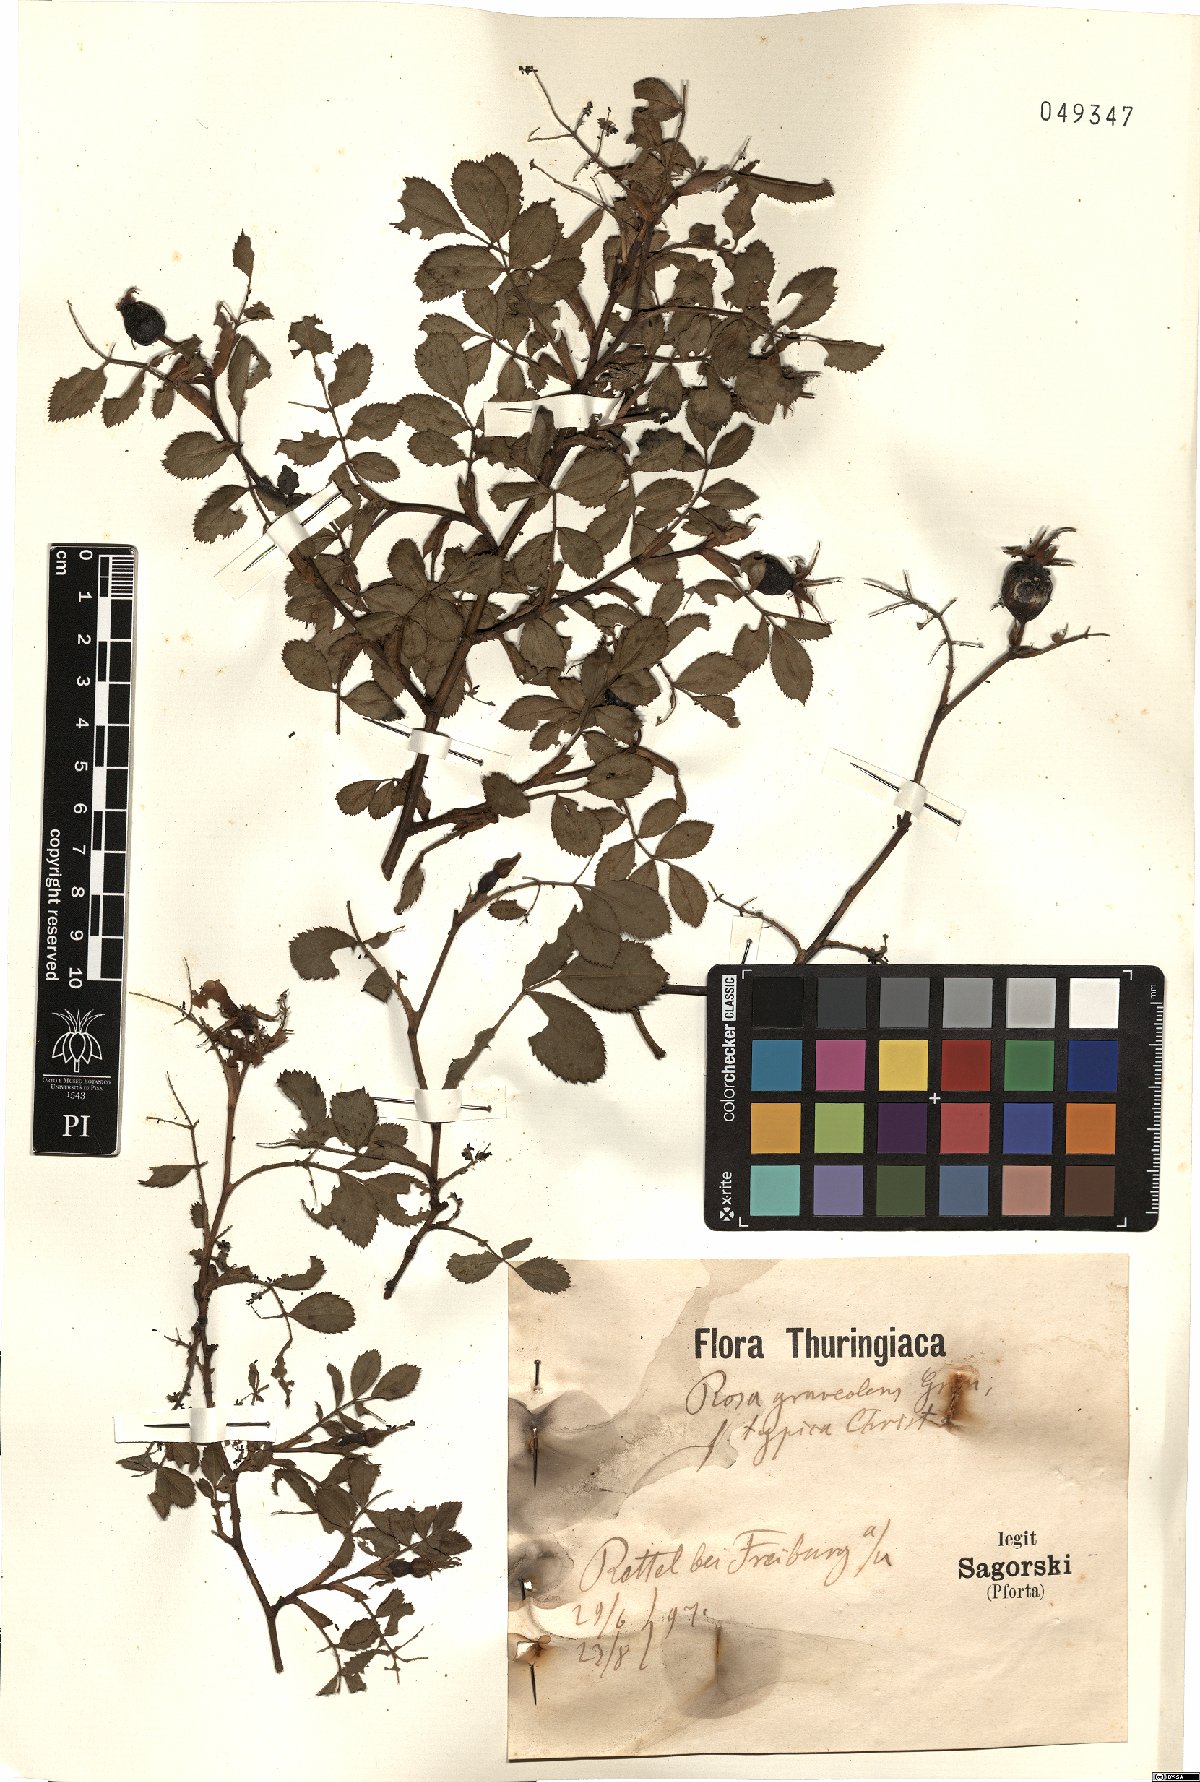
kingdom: Plantae
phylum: Tracheophyta
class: Magnoliopsida
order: Rosales
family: Rosaceae
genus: Rosa
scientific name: Rosa inodora
